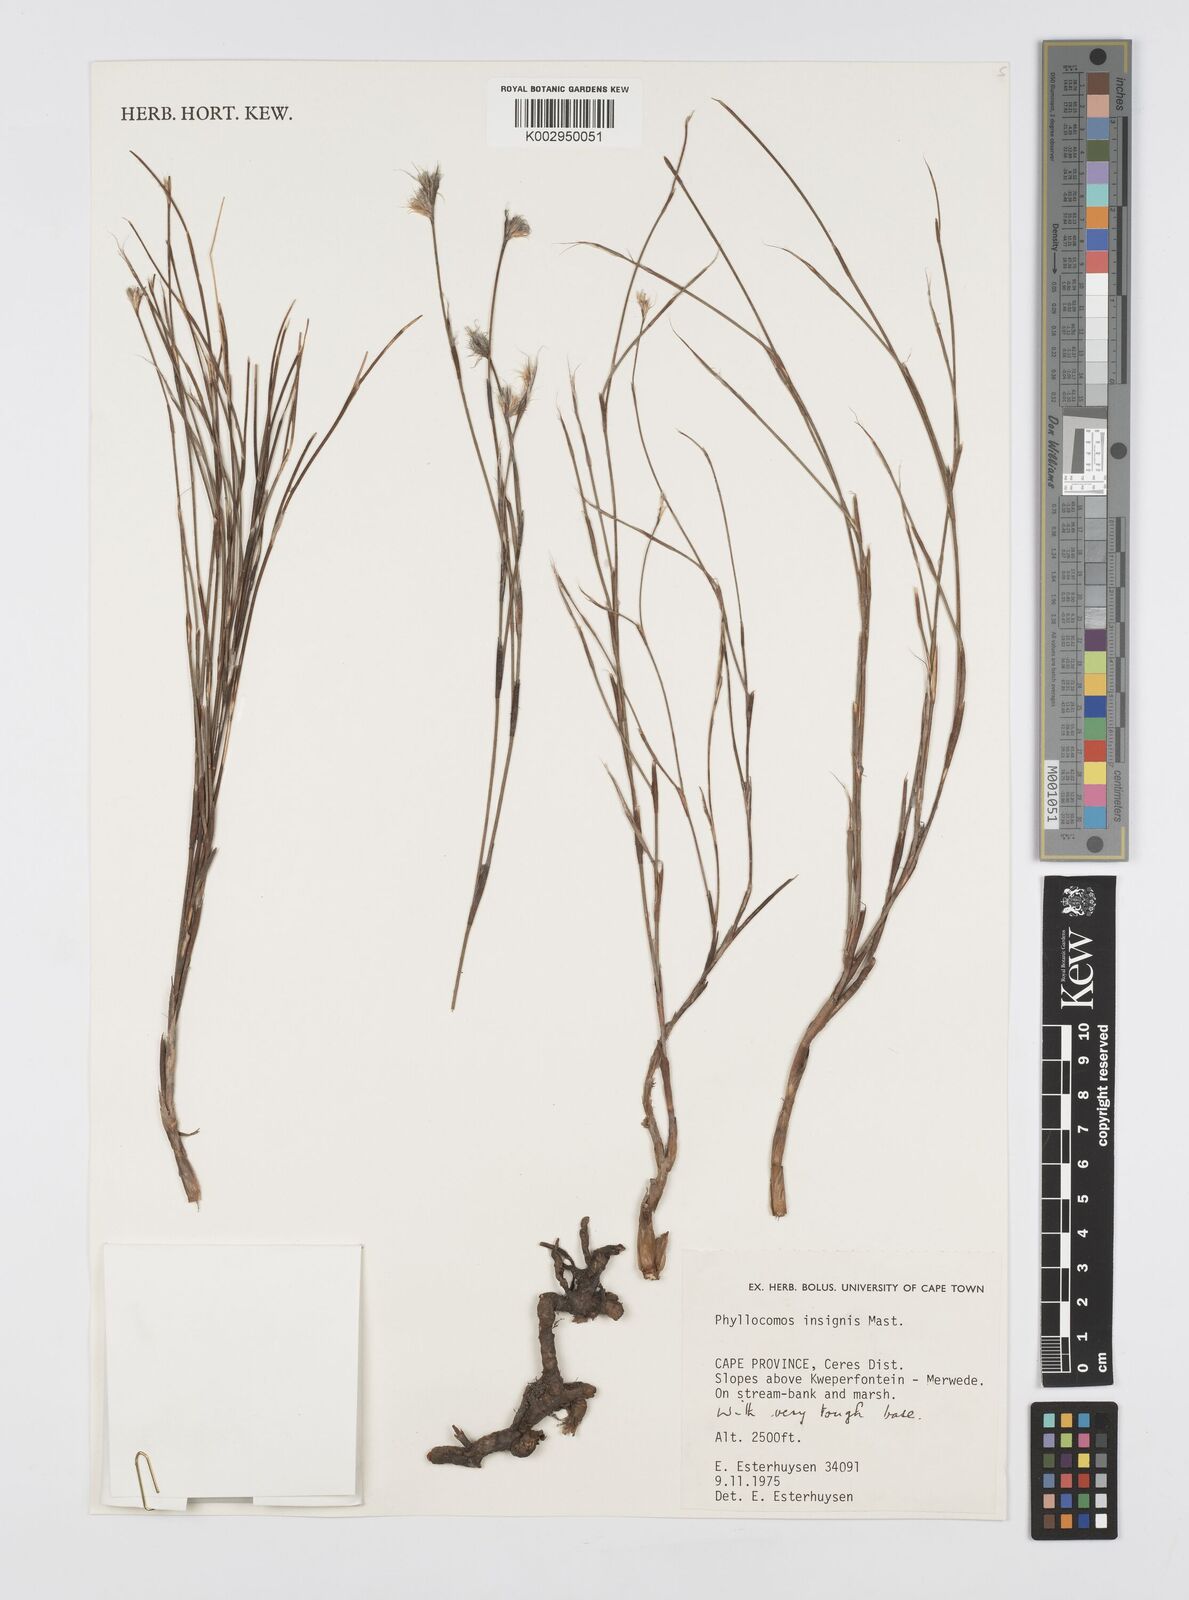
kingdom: Plantae
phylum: Tracheophyta
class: Liliopsida
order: Poales
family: Restionaceae
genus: Anthochortus
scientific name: Anthochortus insignis
